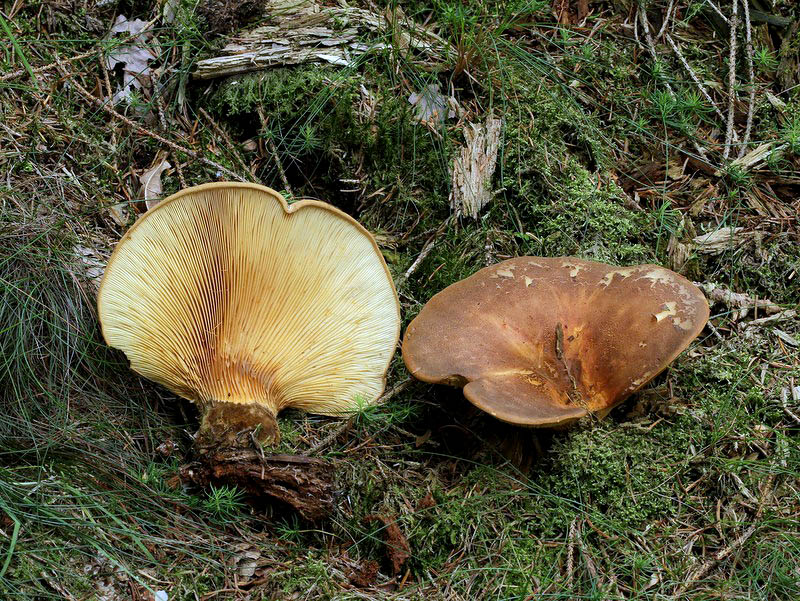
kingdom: Fungi
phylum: Basidiomycota
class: Agaricomycetes
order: Boletales
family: Tapinellaceae
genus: Tapinella
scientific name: Tapinella atrotomentosa
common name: sortfiltet viftesvamp
